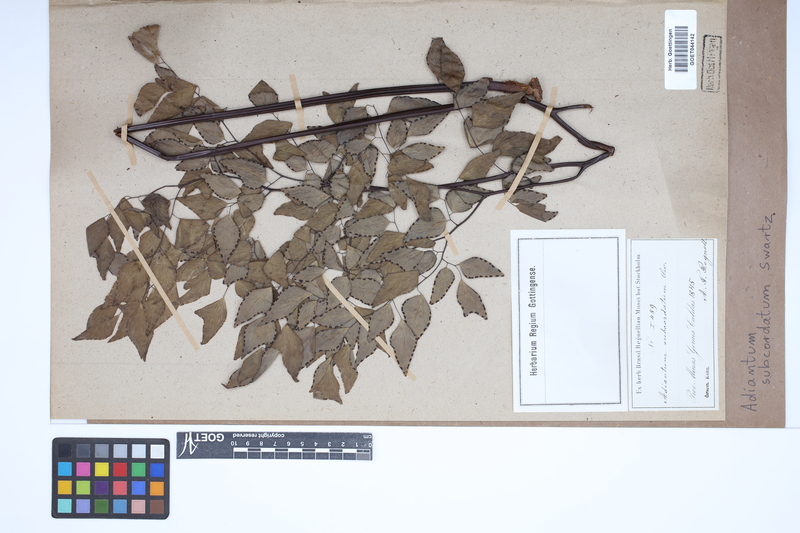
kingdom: Plantae
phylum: Tracheophyta
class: Polypodiopsida
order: Polypodiales
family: Pteridaceae
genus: Adiantum
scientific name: Adiantum subcordatum
